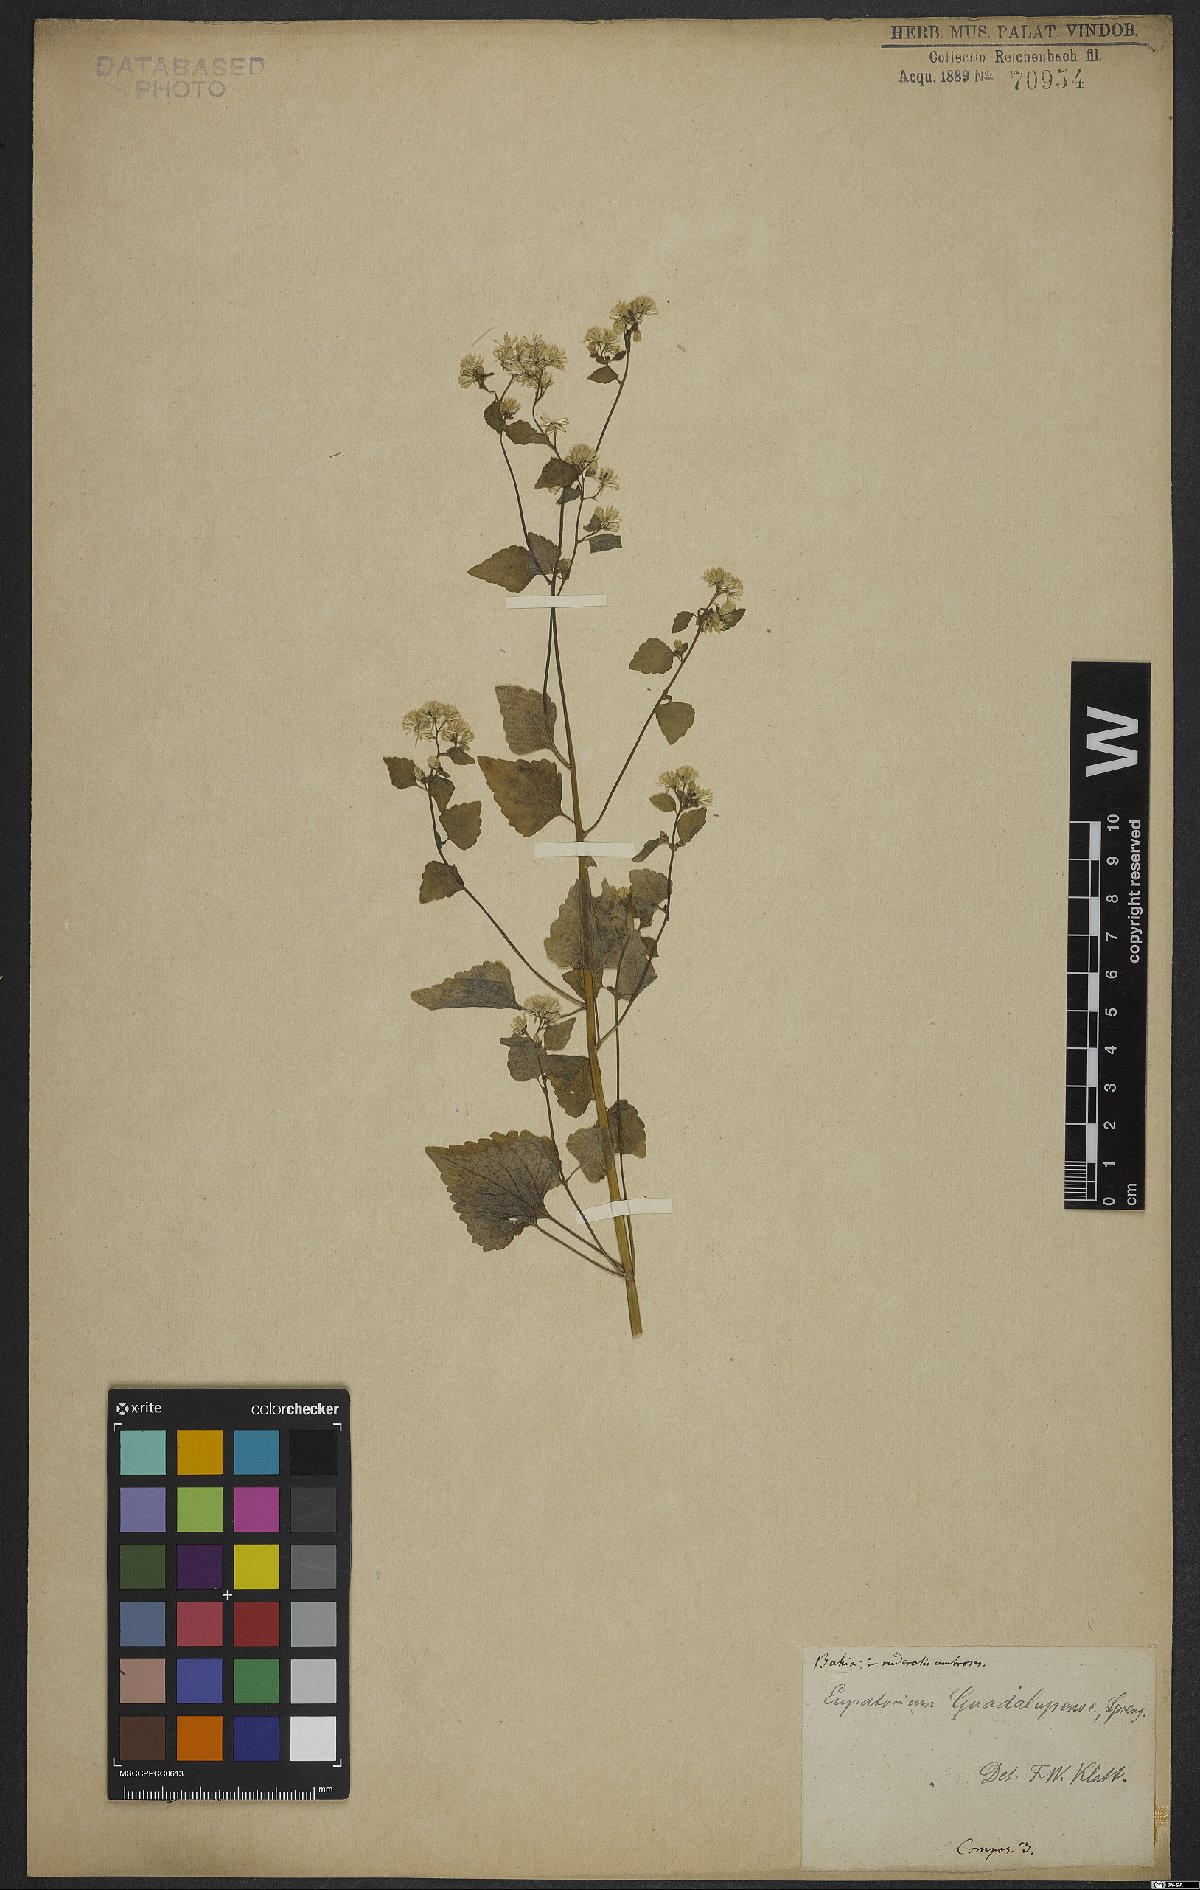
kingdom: Plantae
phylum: Tracheophyta
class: Magnoliopsida
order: Asterales
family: Asteraceae
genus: Fleischmannia
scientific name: Fleischmannia microstemon
